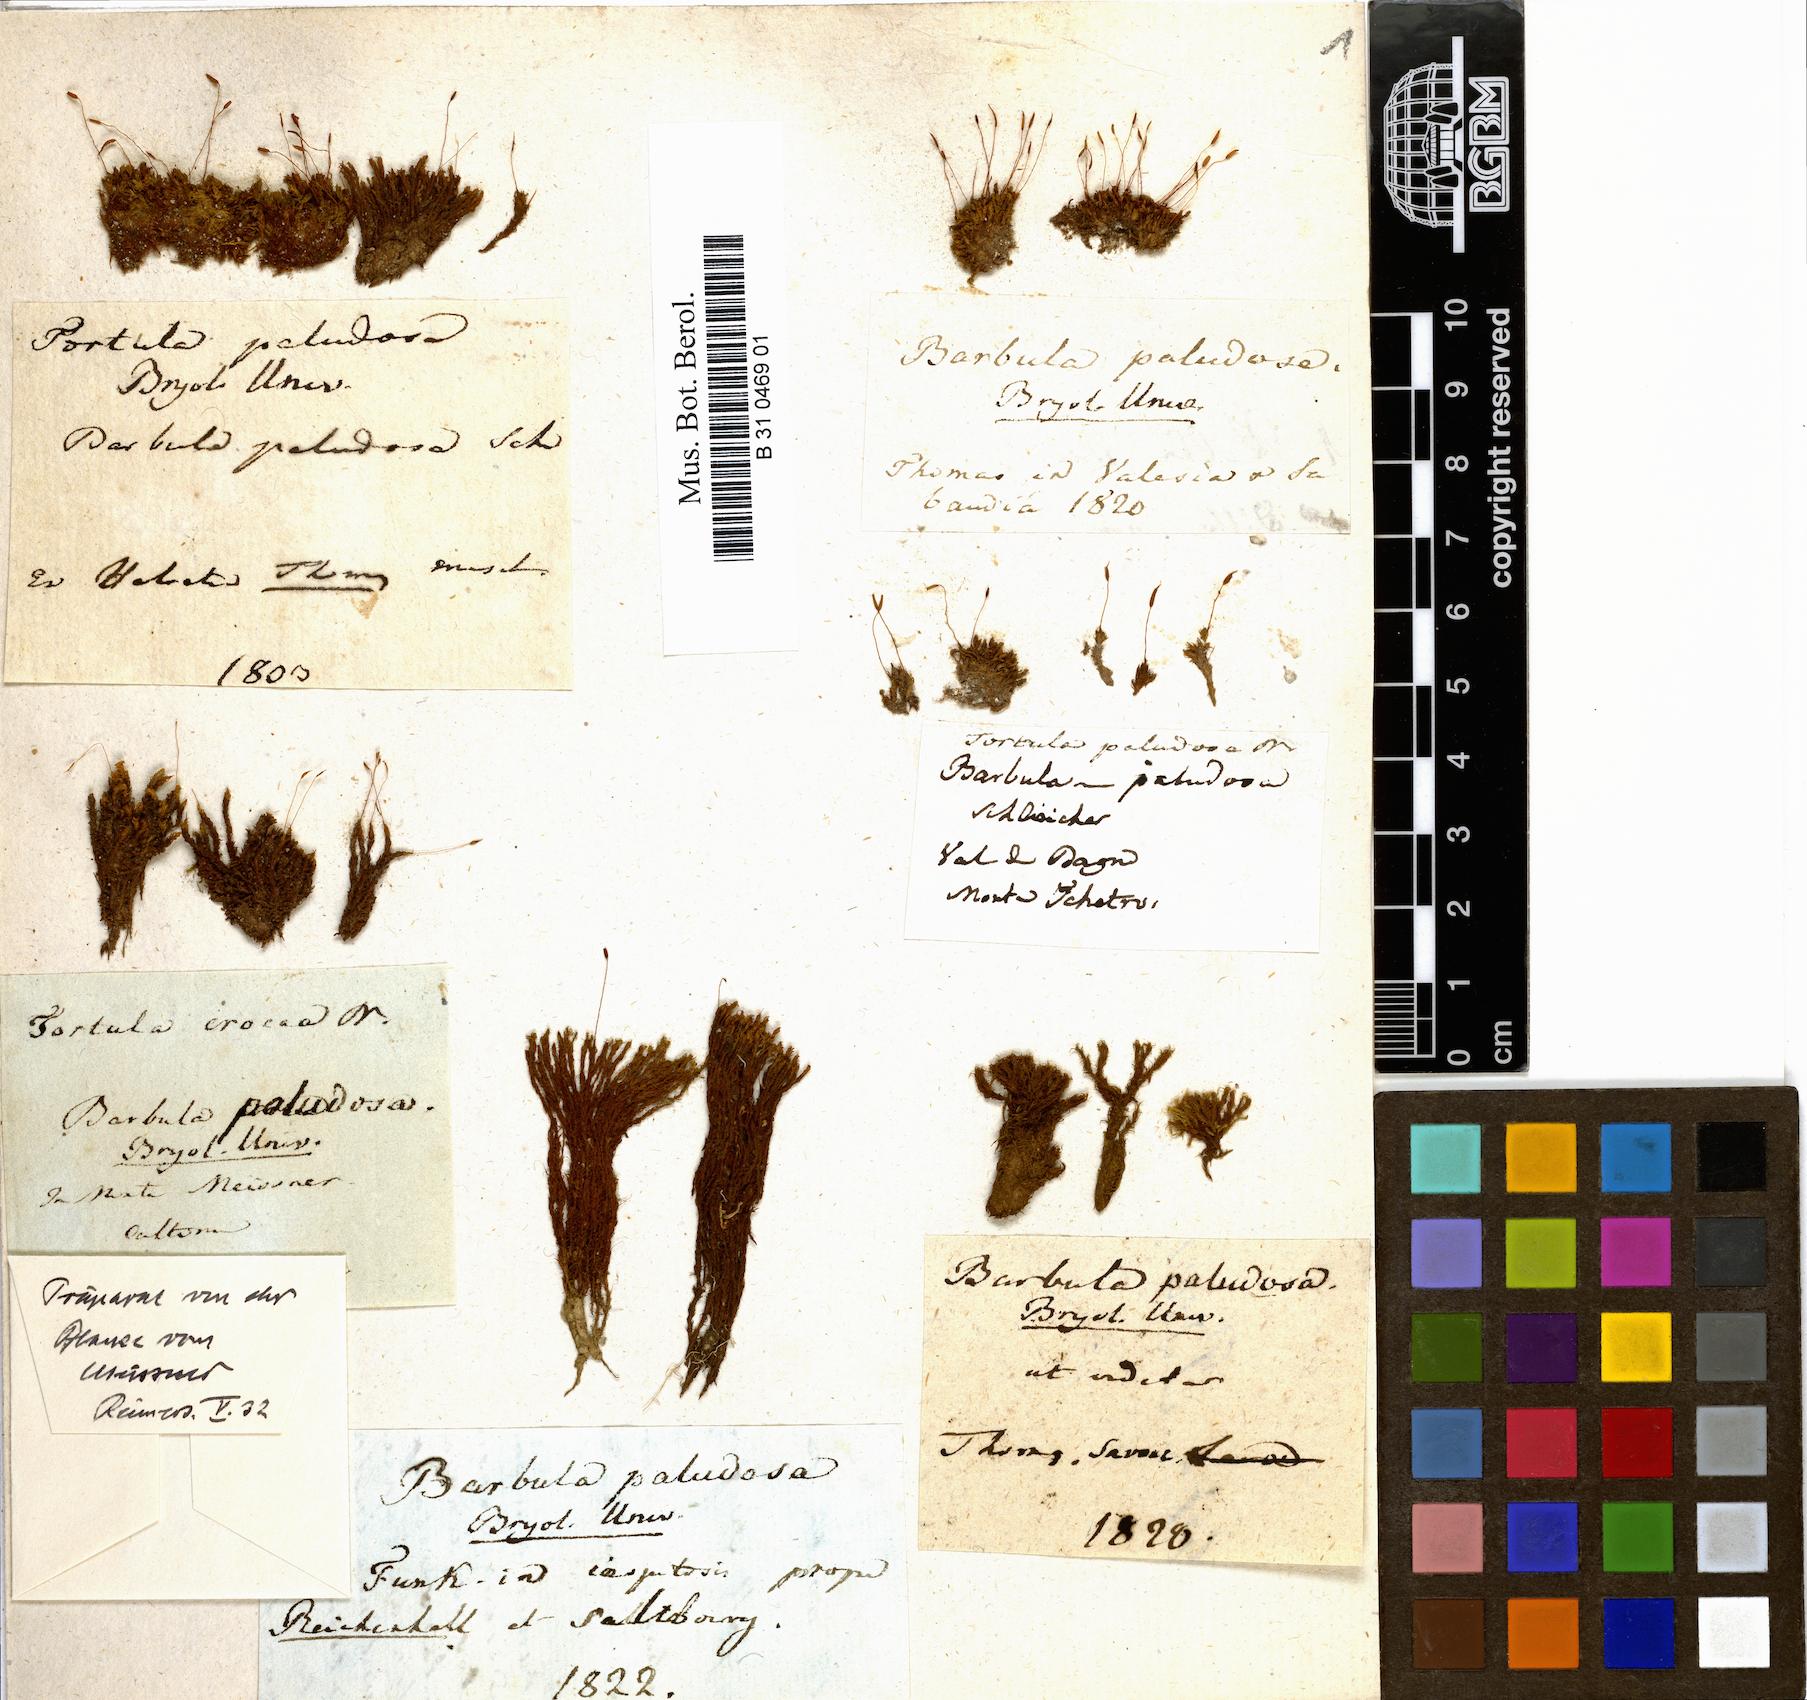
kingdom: Plantae
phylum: Bryophyta
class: Bryopsida
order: Pottiales
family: Pottiaceae
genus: Hydrogonium
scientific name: Hydrogonium croceum
